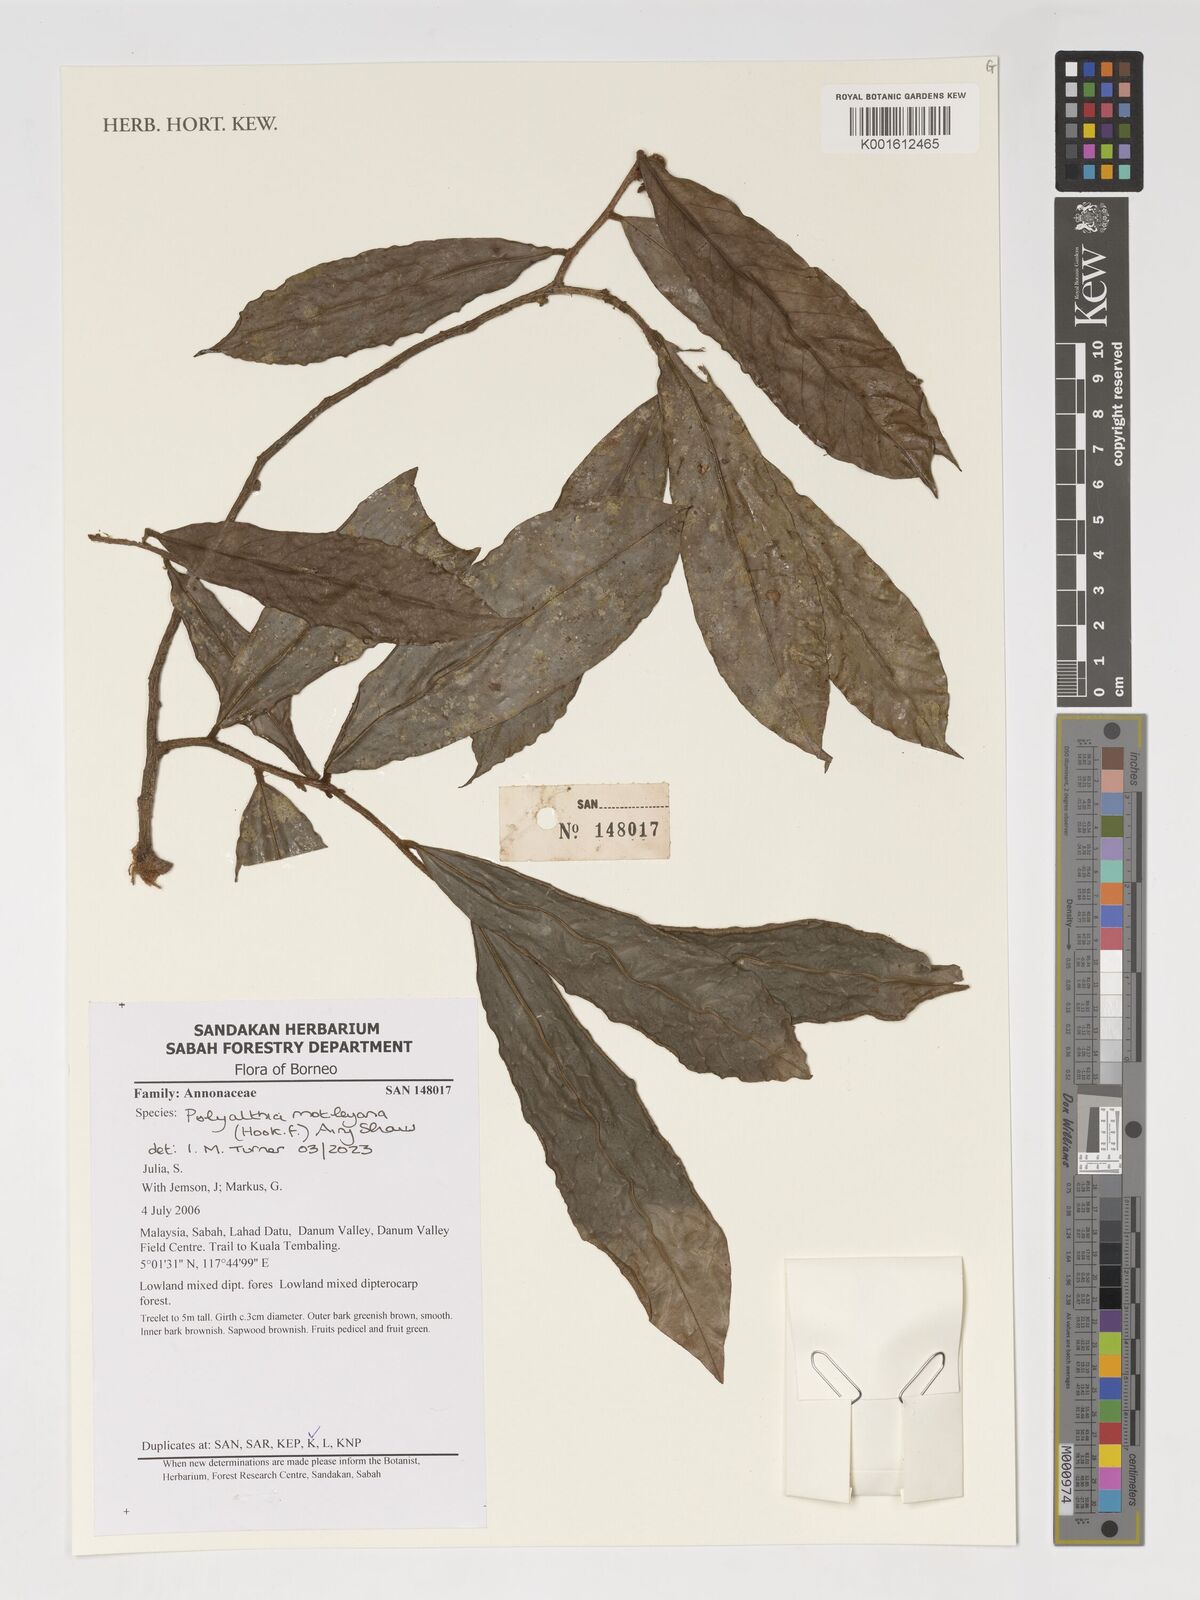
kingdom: Plantae
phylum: Tracheophyta
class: Magnoliopsida
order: Magnoliales
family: Annonaceae
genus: Polyalthia
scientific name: Polyalthia motleyana
